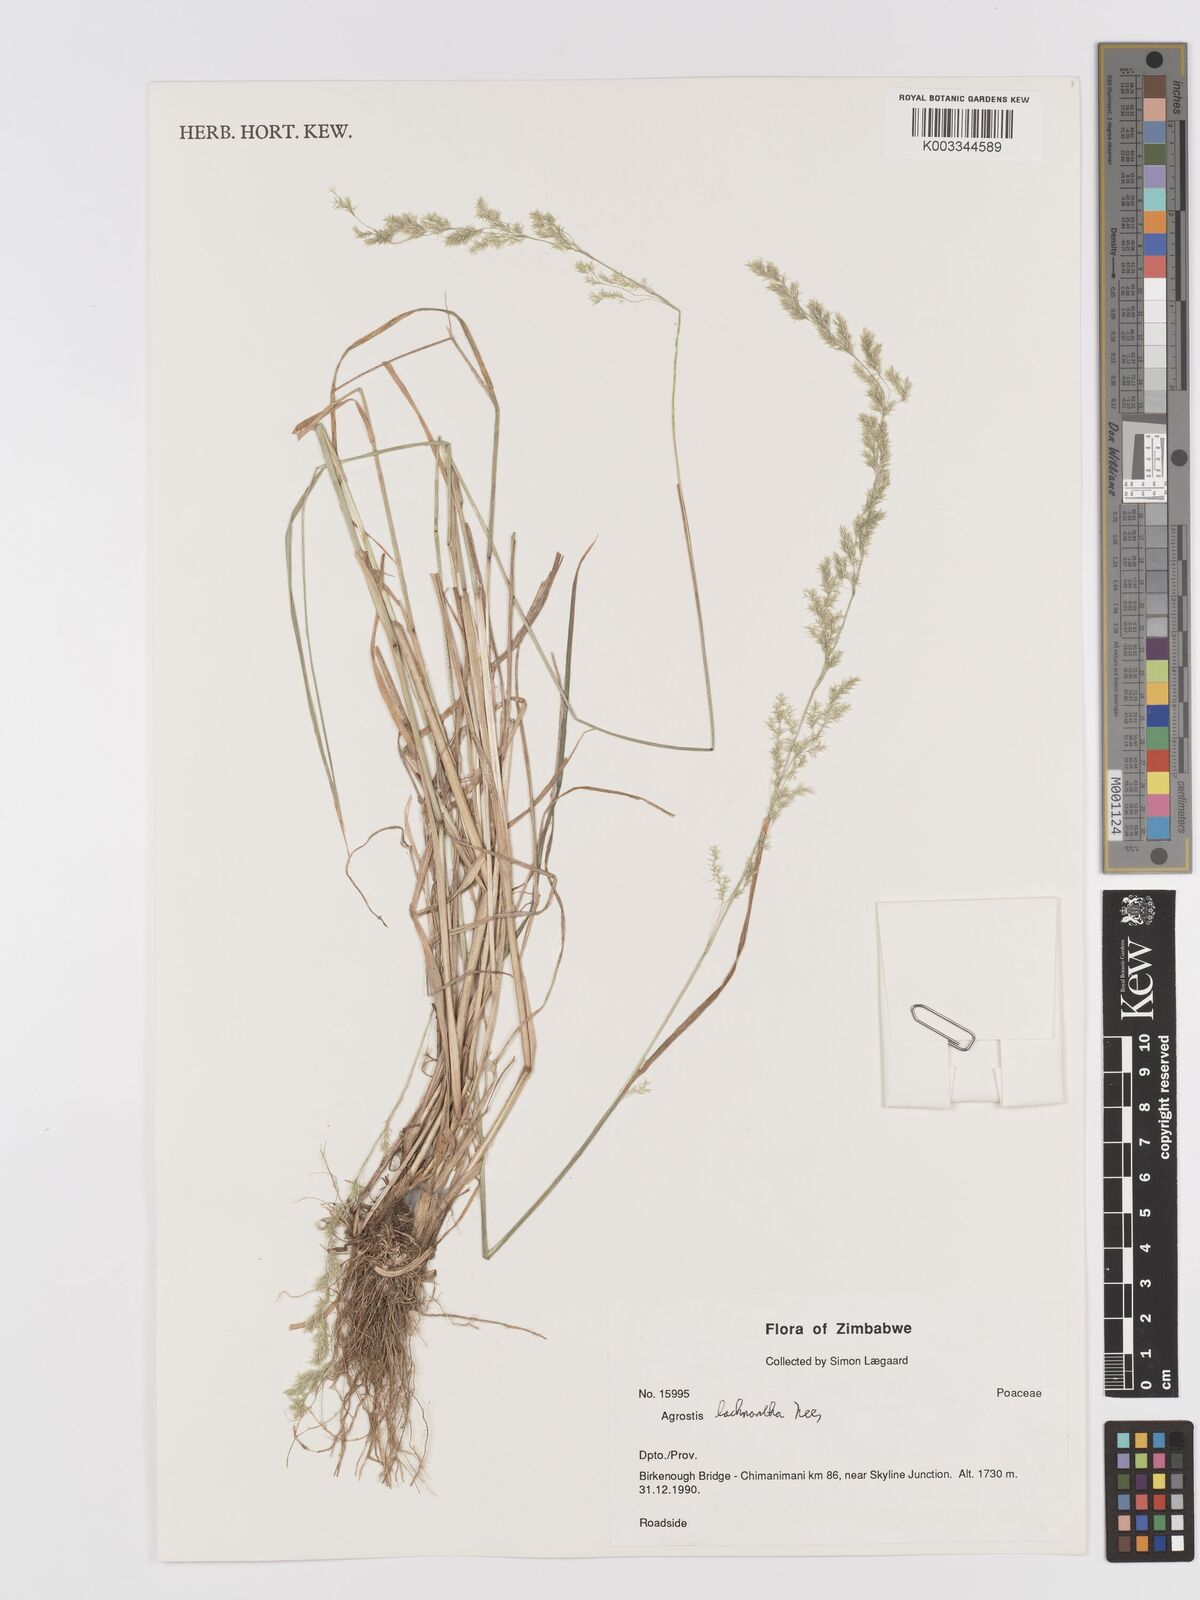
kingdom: Plantae
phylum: Tracheophyta
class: Liliopsida
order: Poales
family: Poaceae
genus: Lachnagrostis
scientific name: Lachnagrostis lachnantha
